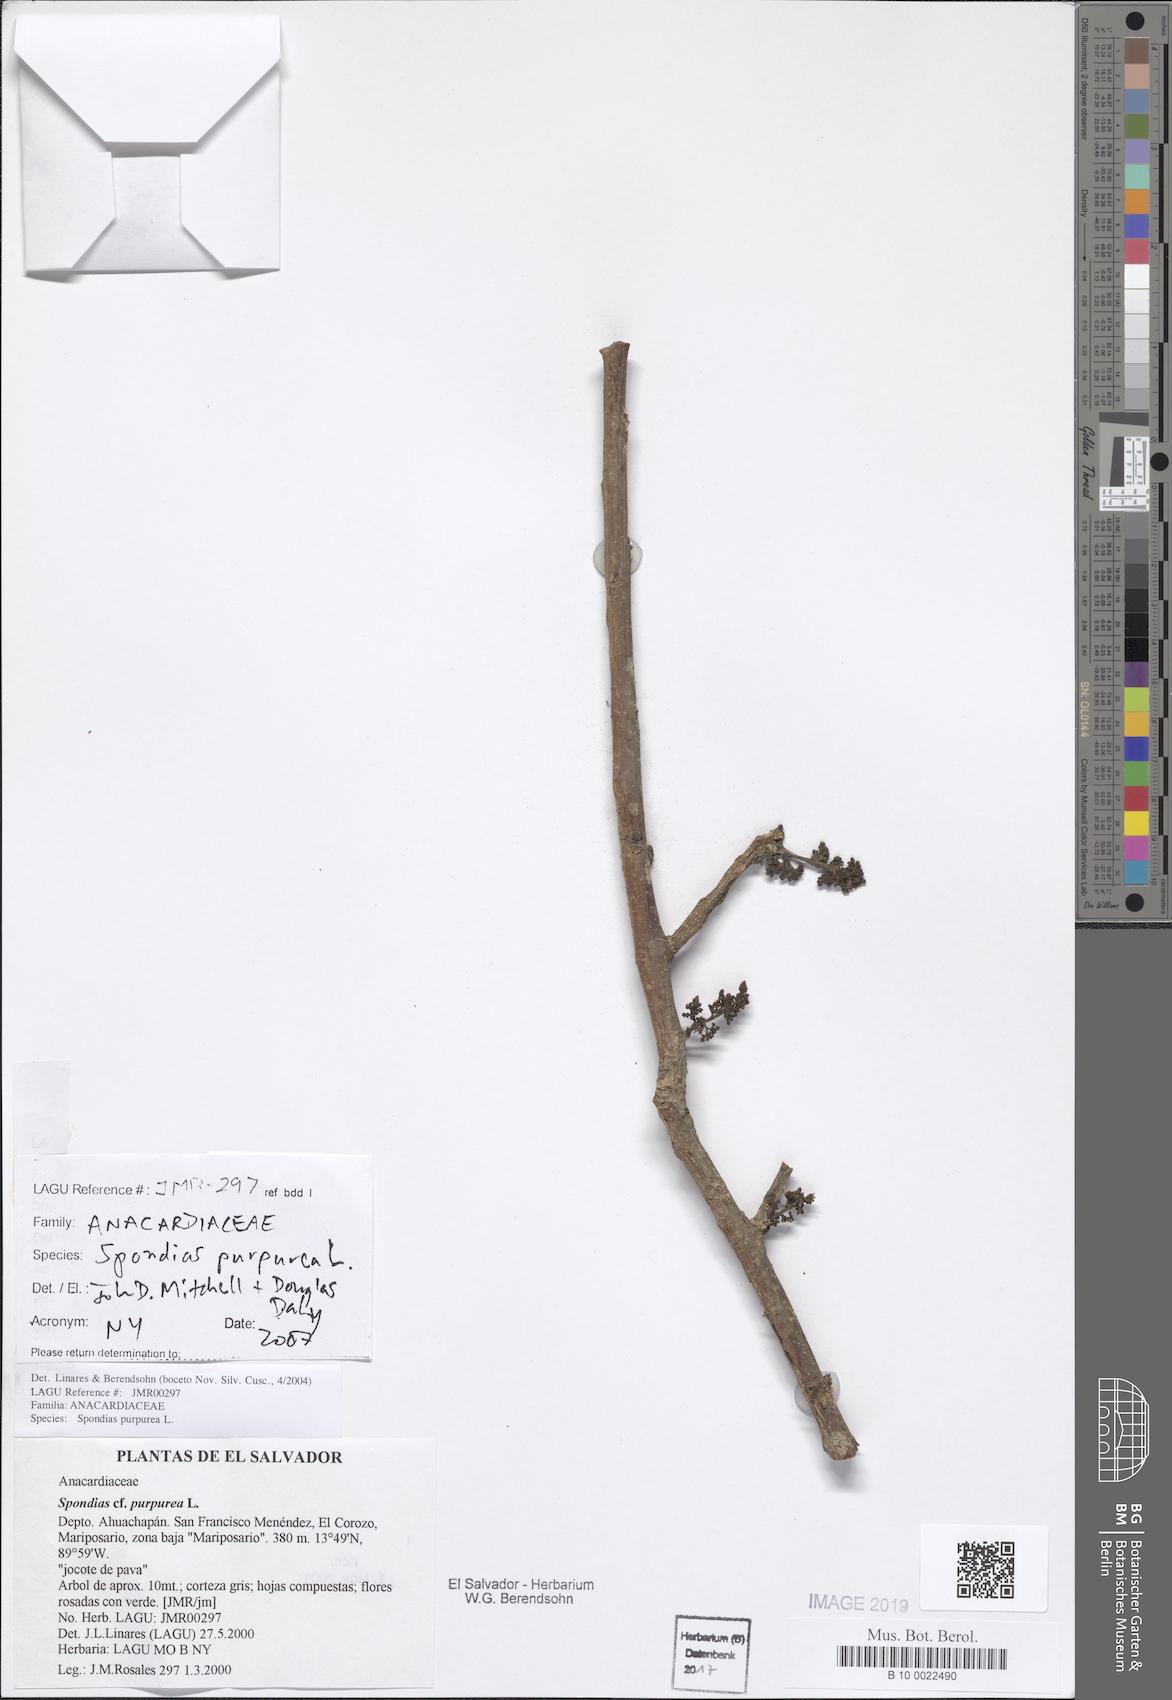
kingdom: Plantae
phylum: Tracheophyta
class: Magnoliopsida
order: Sapindales
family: Anacardiaceae
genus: Spondias
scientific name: Spondias purpurea
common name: Purple mombin
